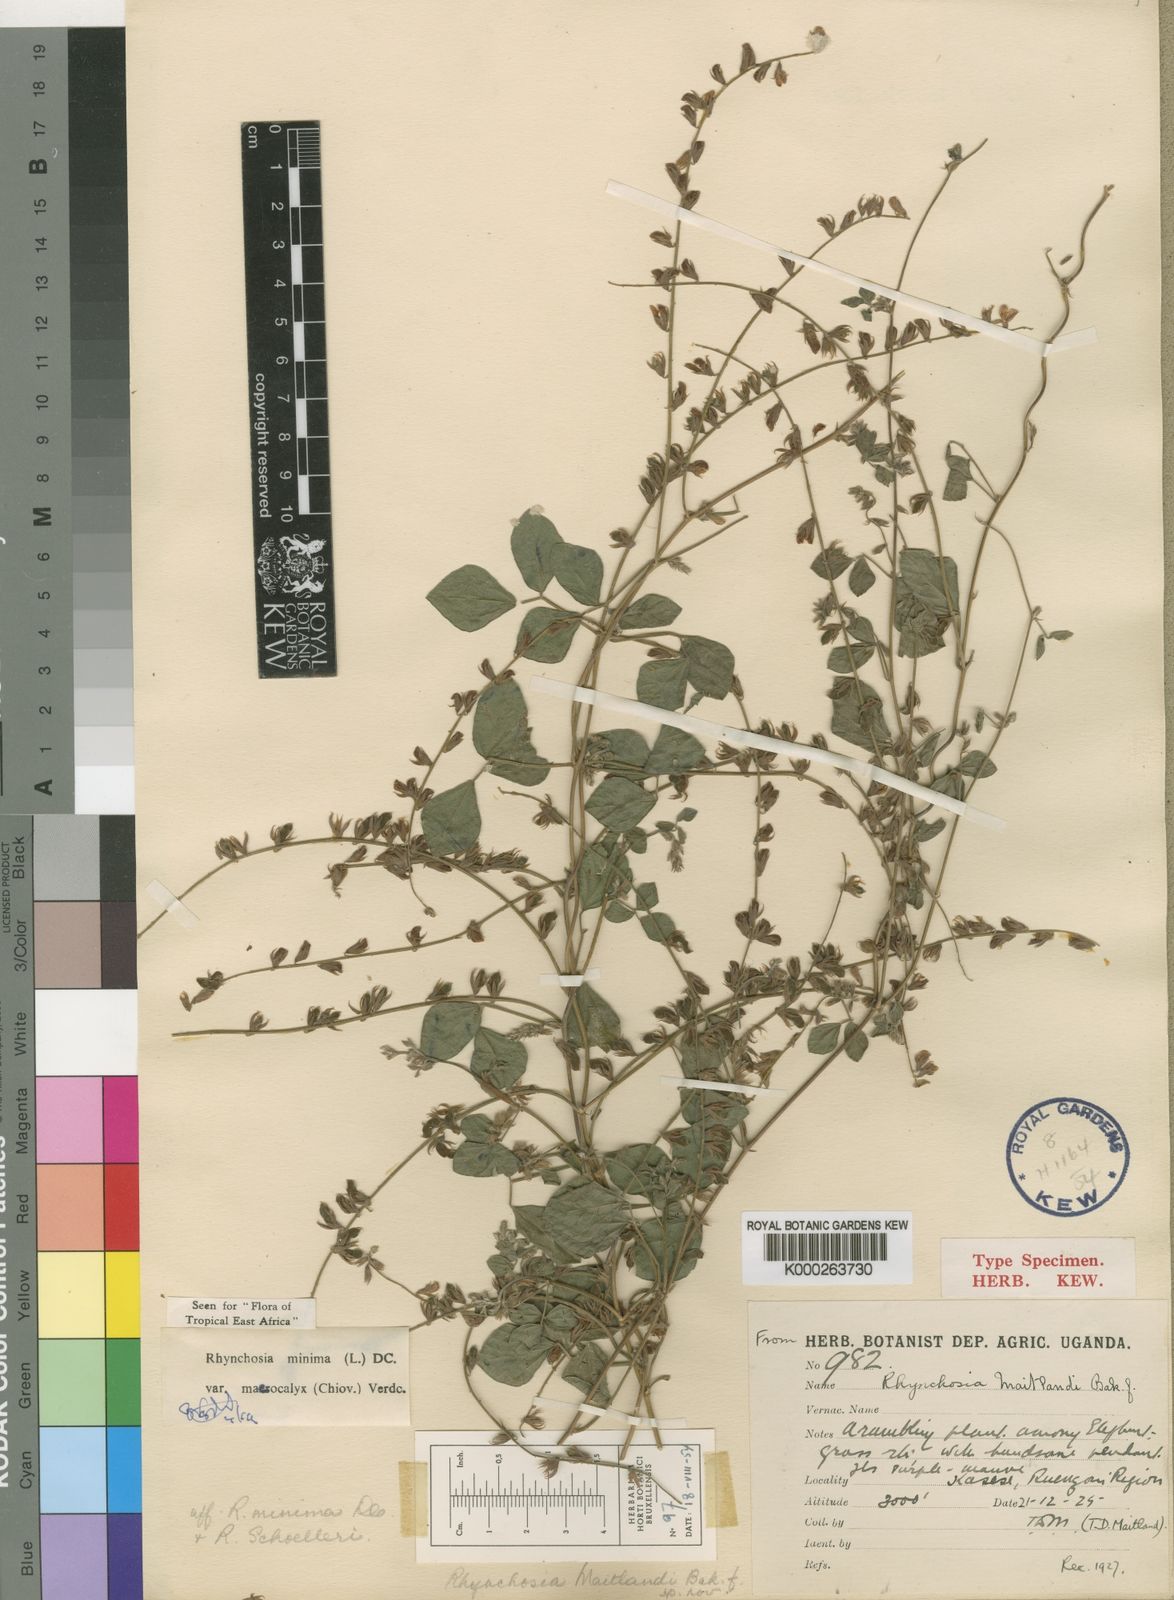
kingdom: Plantae
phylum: Tracheophyta
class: Magnoliopsida
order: Fabales
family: Fabaceae
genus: Rhynchosia
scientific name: Rhynchosia minima
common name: Least snoutbean
